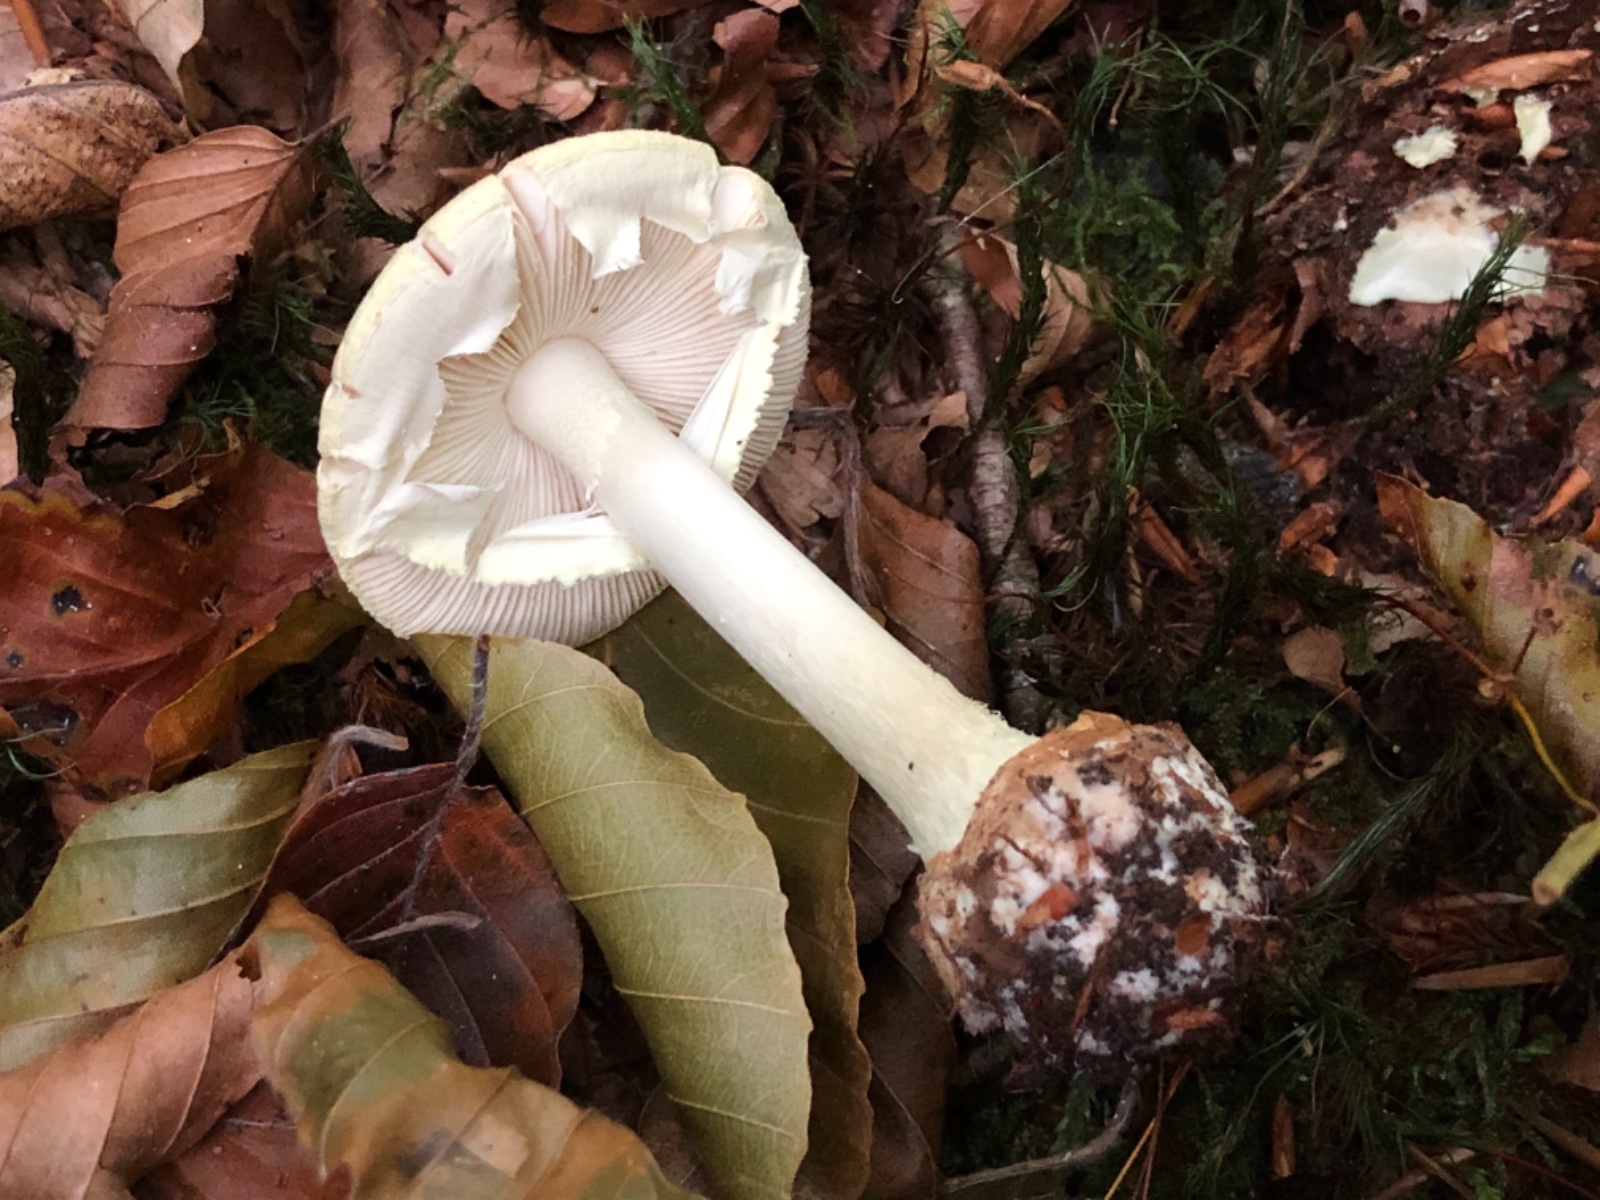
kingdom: Fungi
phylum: Basidiomycota
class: Agaricomycetes
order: Agaricales
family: Amanitaceae
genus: Amanita
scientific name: Amanita citrina
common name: kugleknoldet fluesvamp
